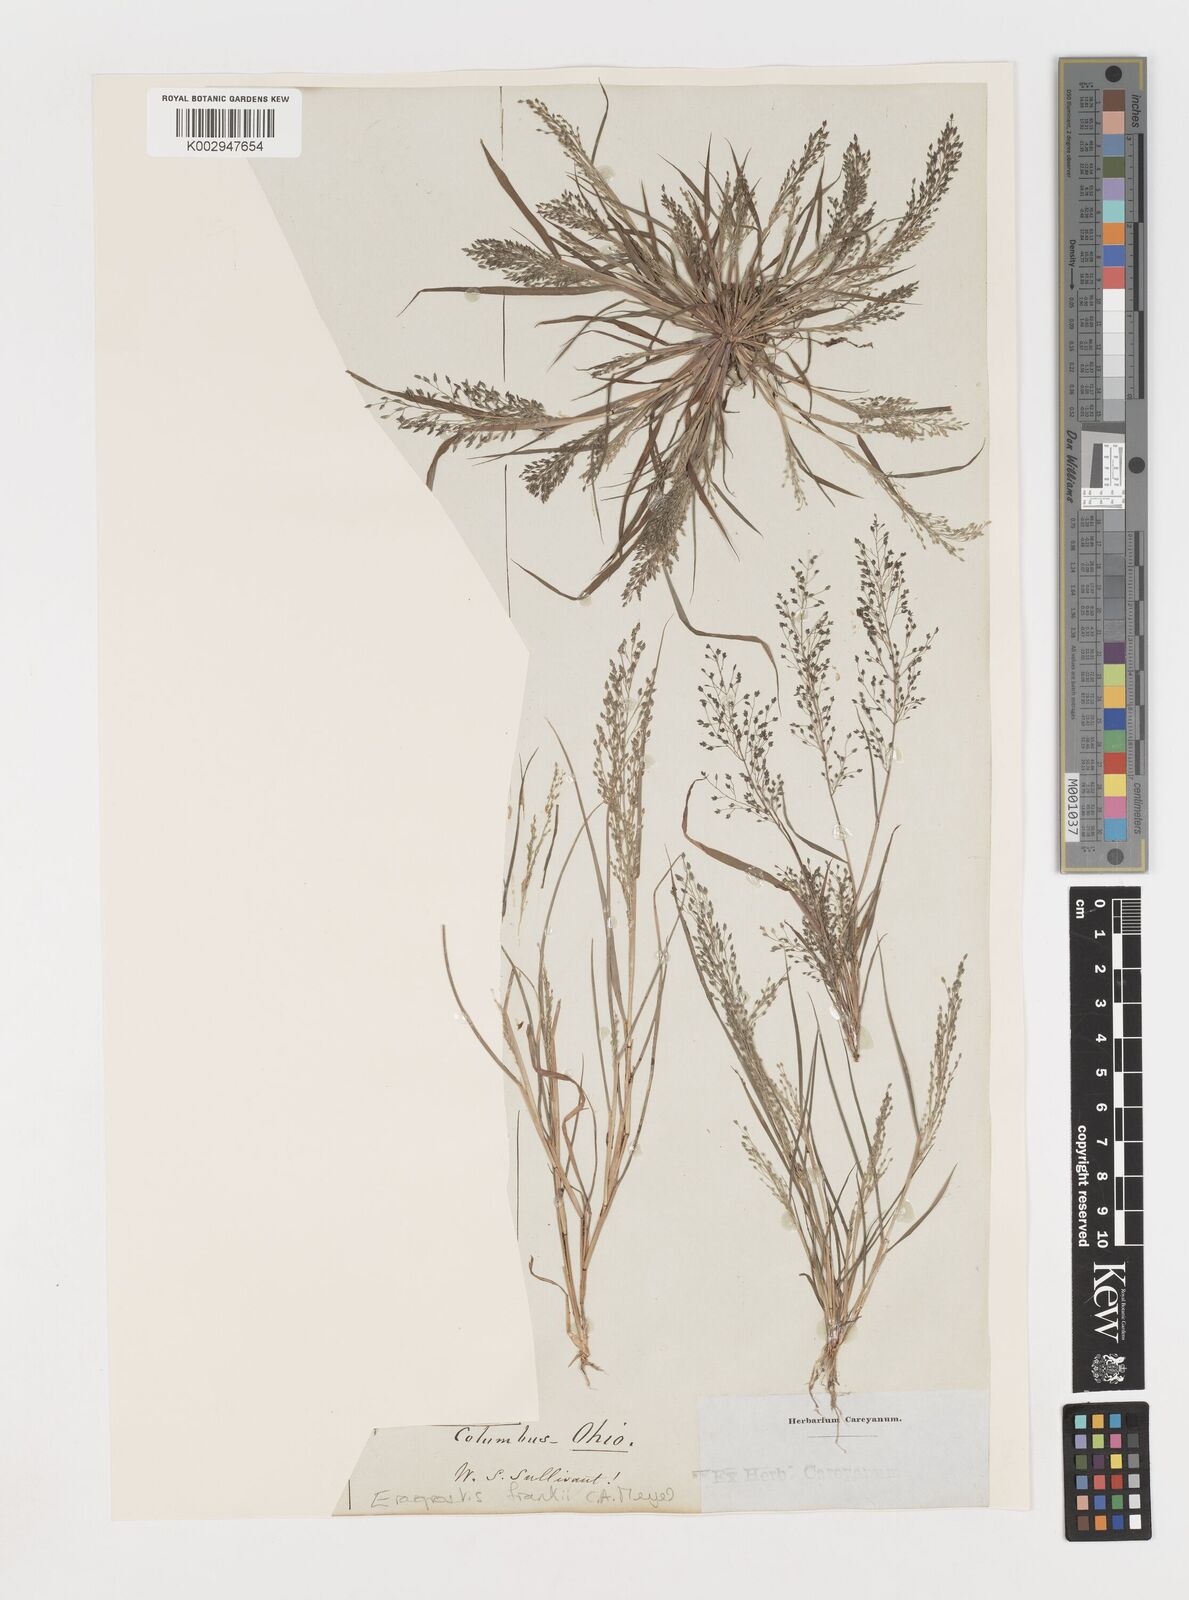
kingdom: Plantae
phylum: Tracheophyta
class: Liliopsida
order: Poales
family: Poaceae
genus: Eragrostis
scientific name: Eragrostis frankii
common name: Frank's lovegrass
